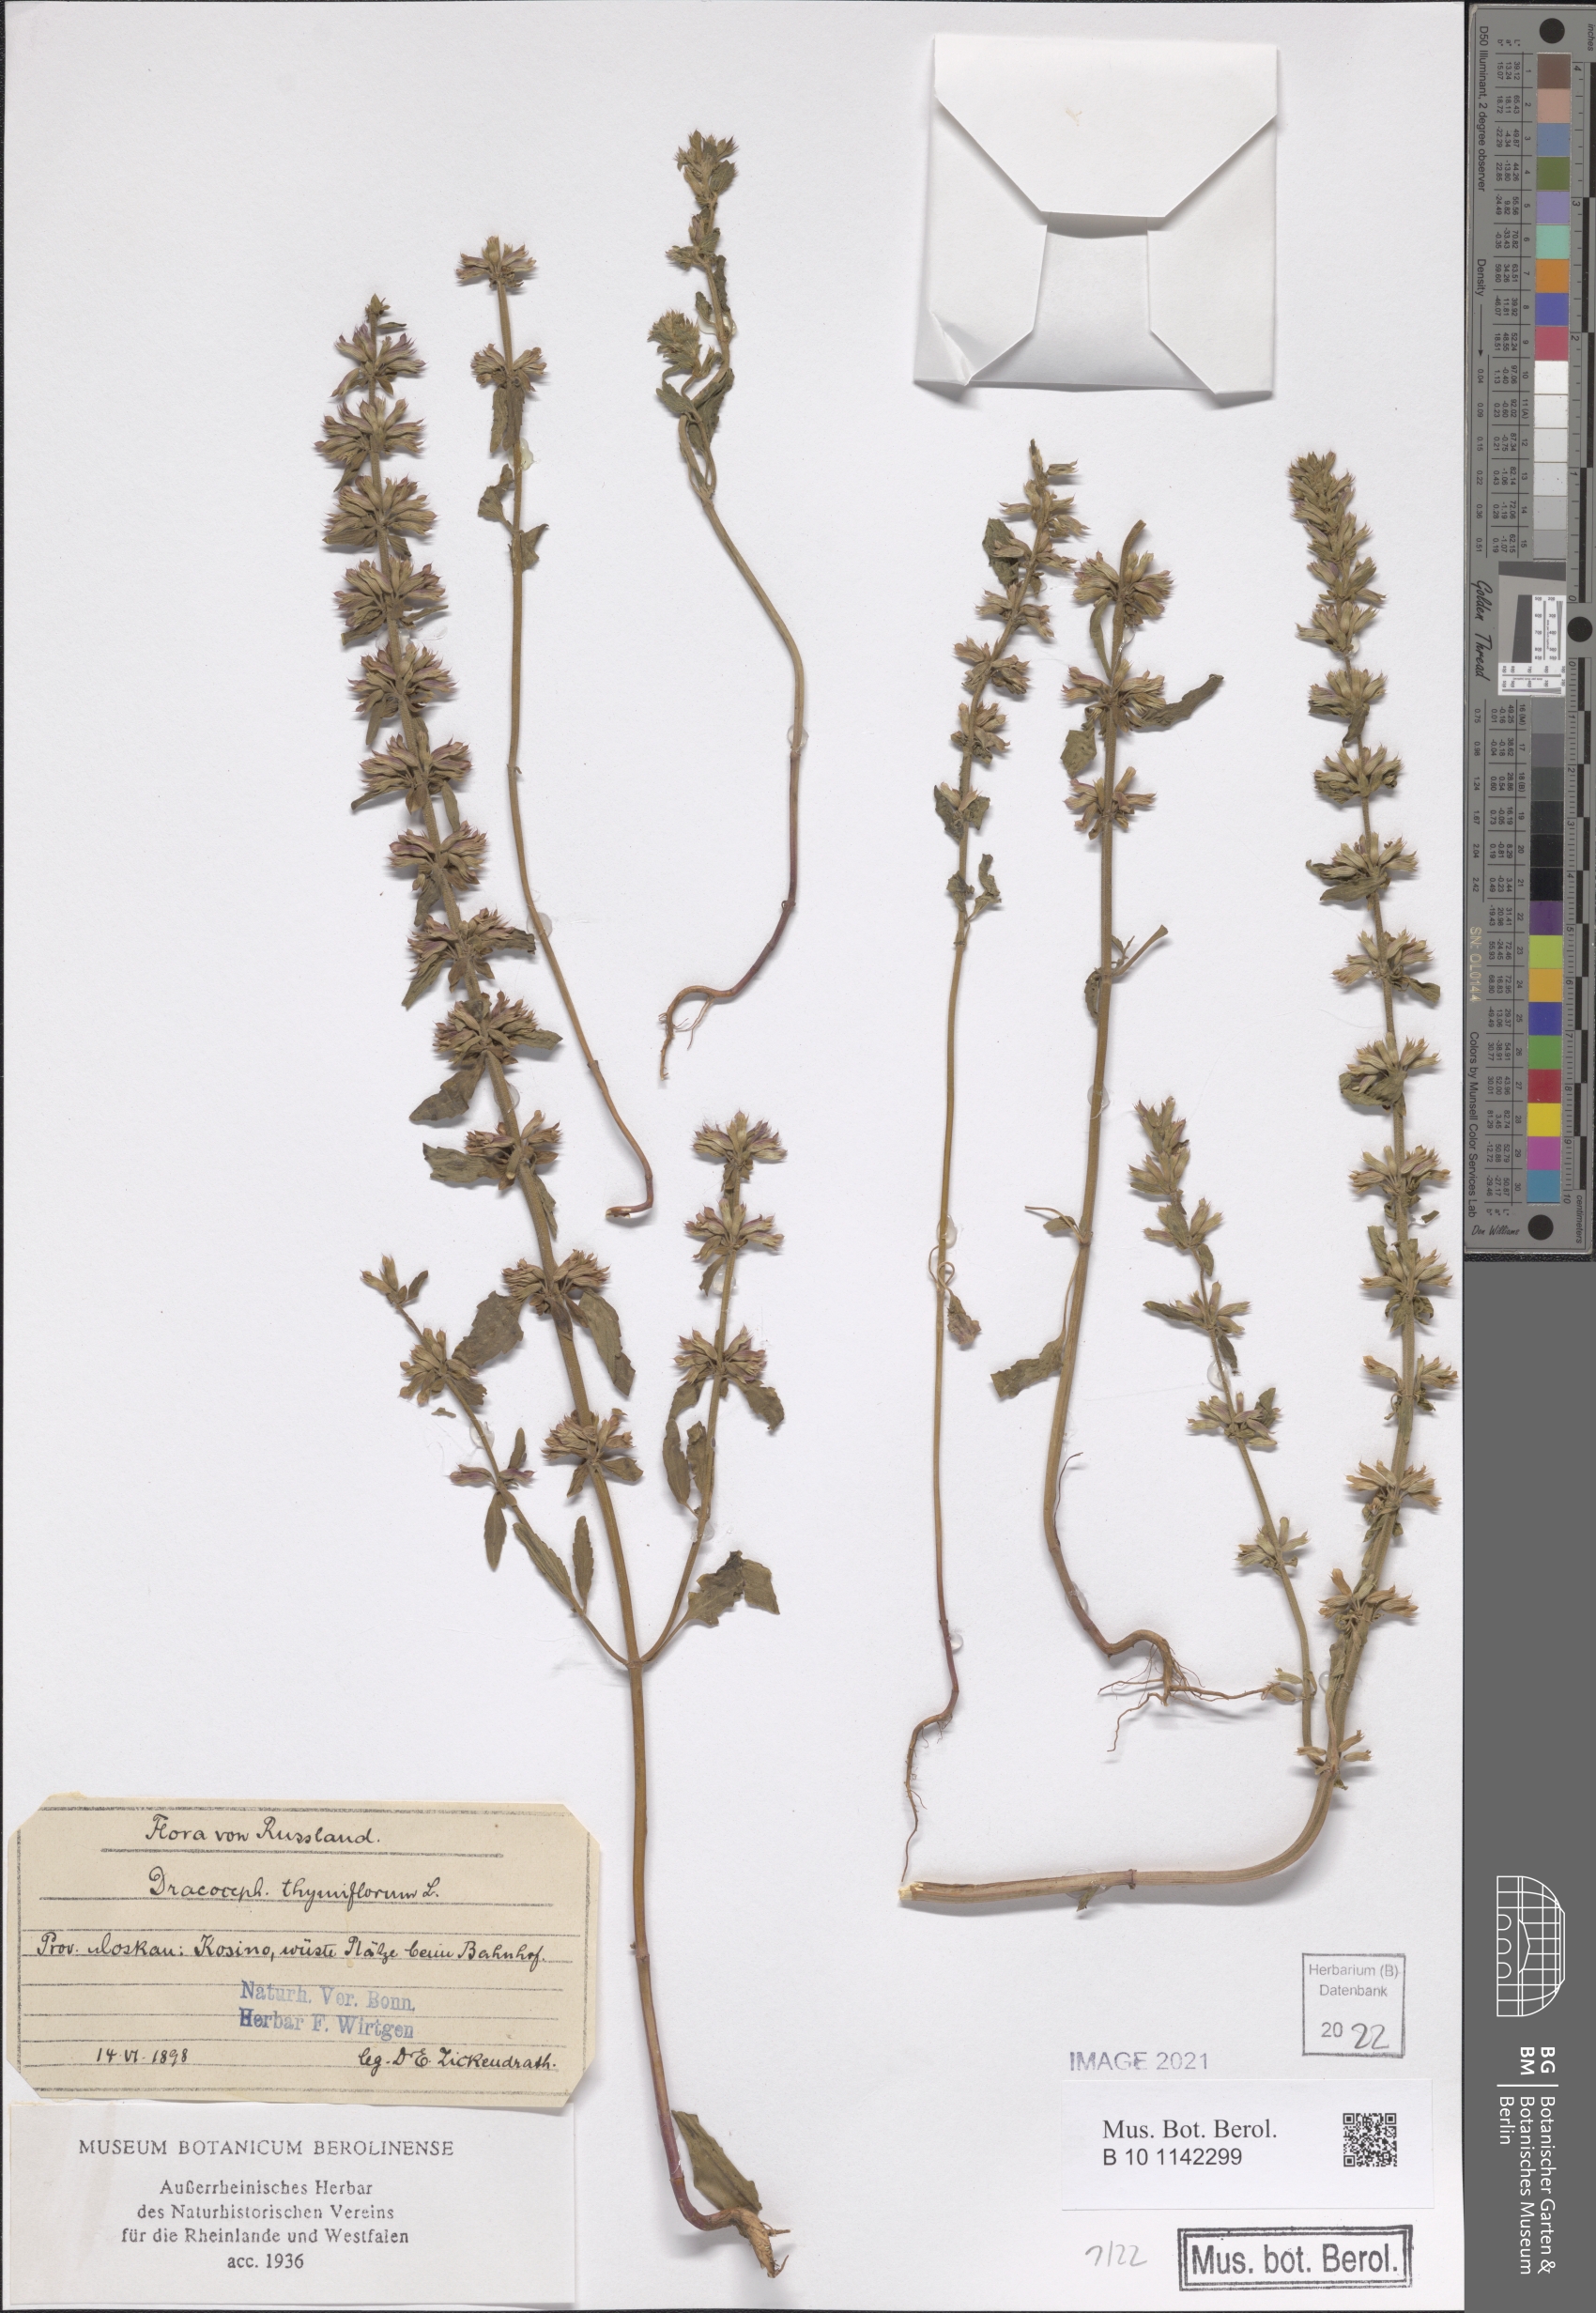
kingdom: Plantae
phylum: Tracheophyta
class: Magnoliopsida
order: Lamiales
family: Lamiaceae
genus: Dracocephalum
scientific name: Dracocephalum thymiflorum
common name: Thymeleaf dragonhead
